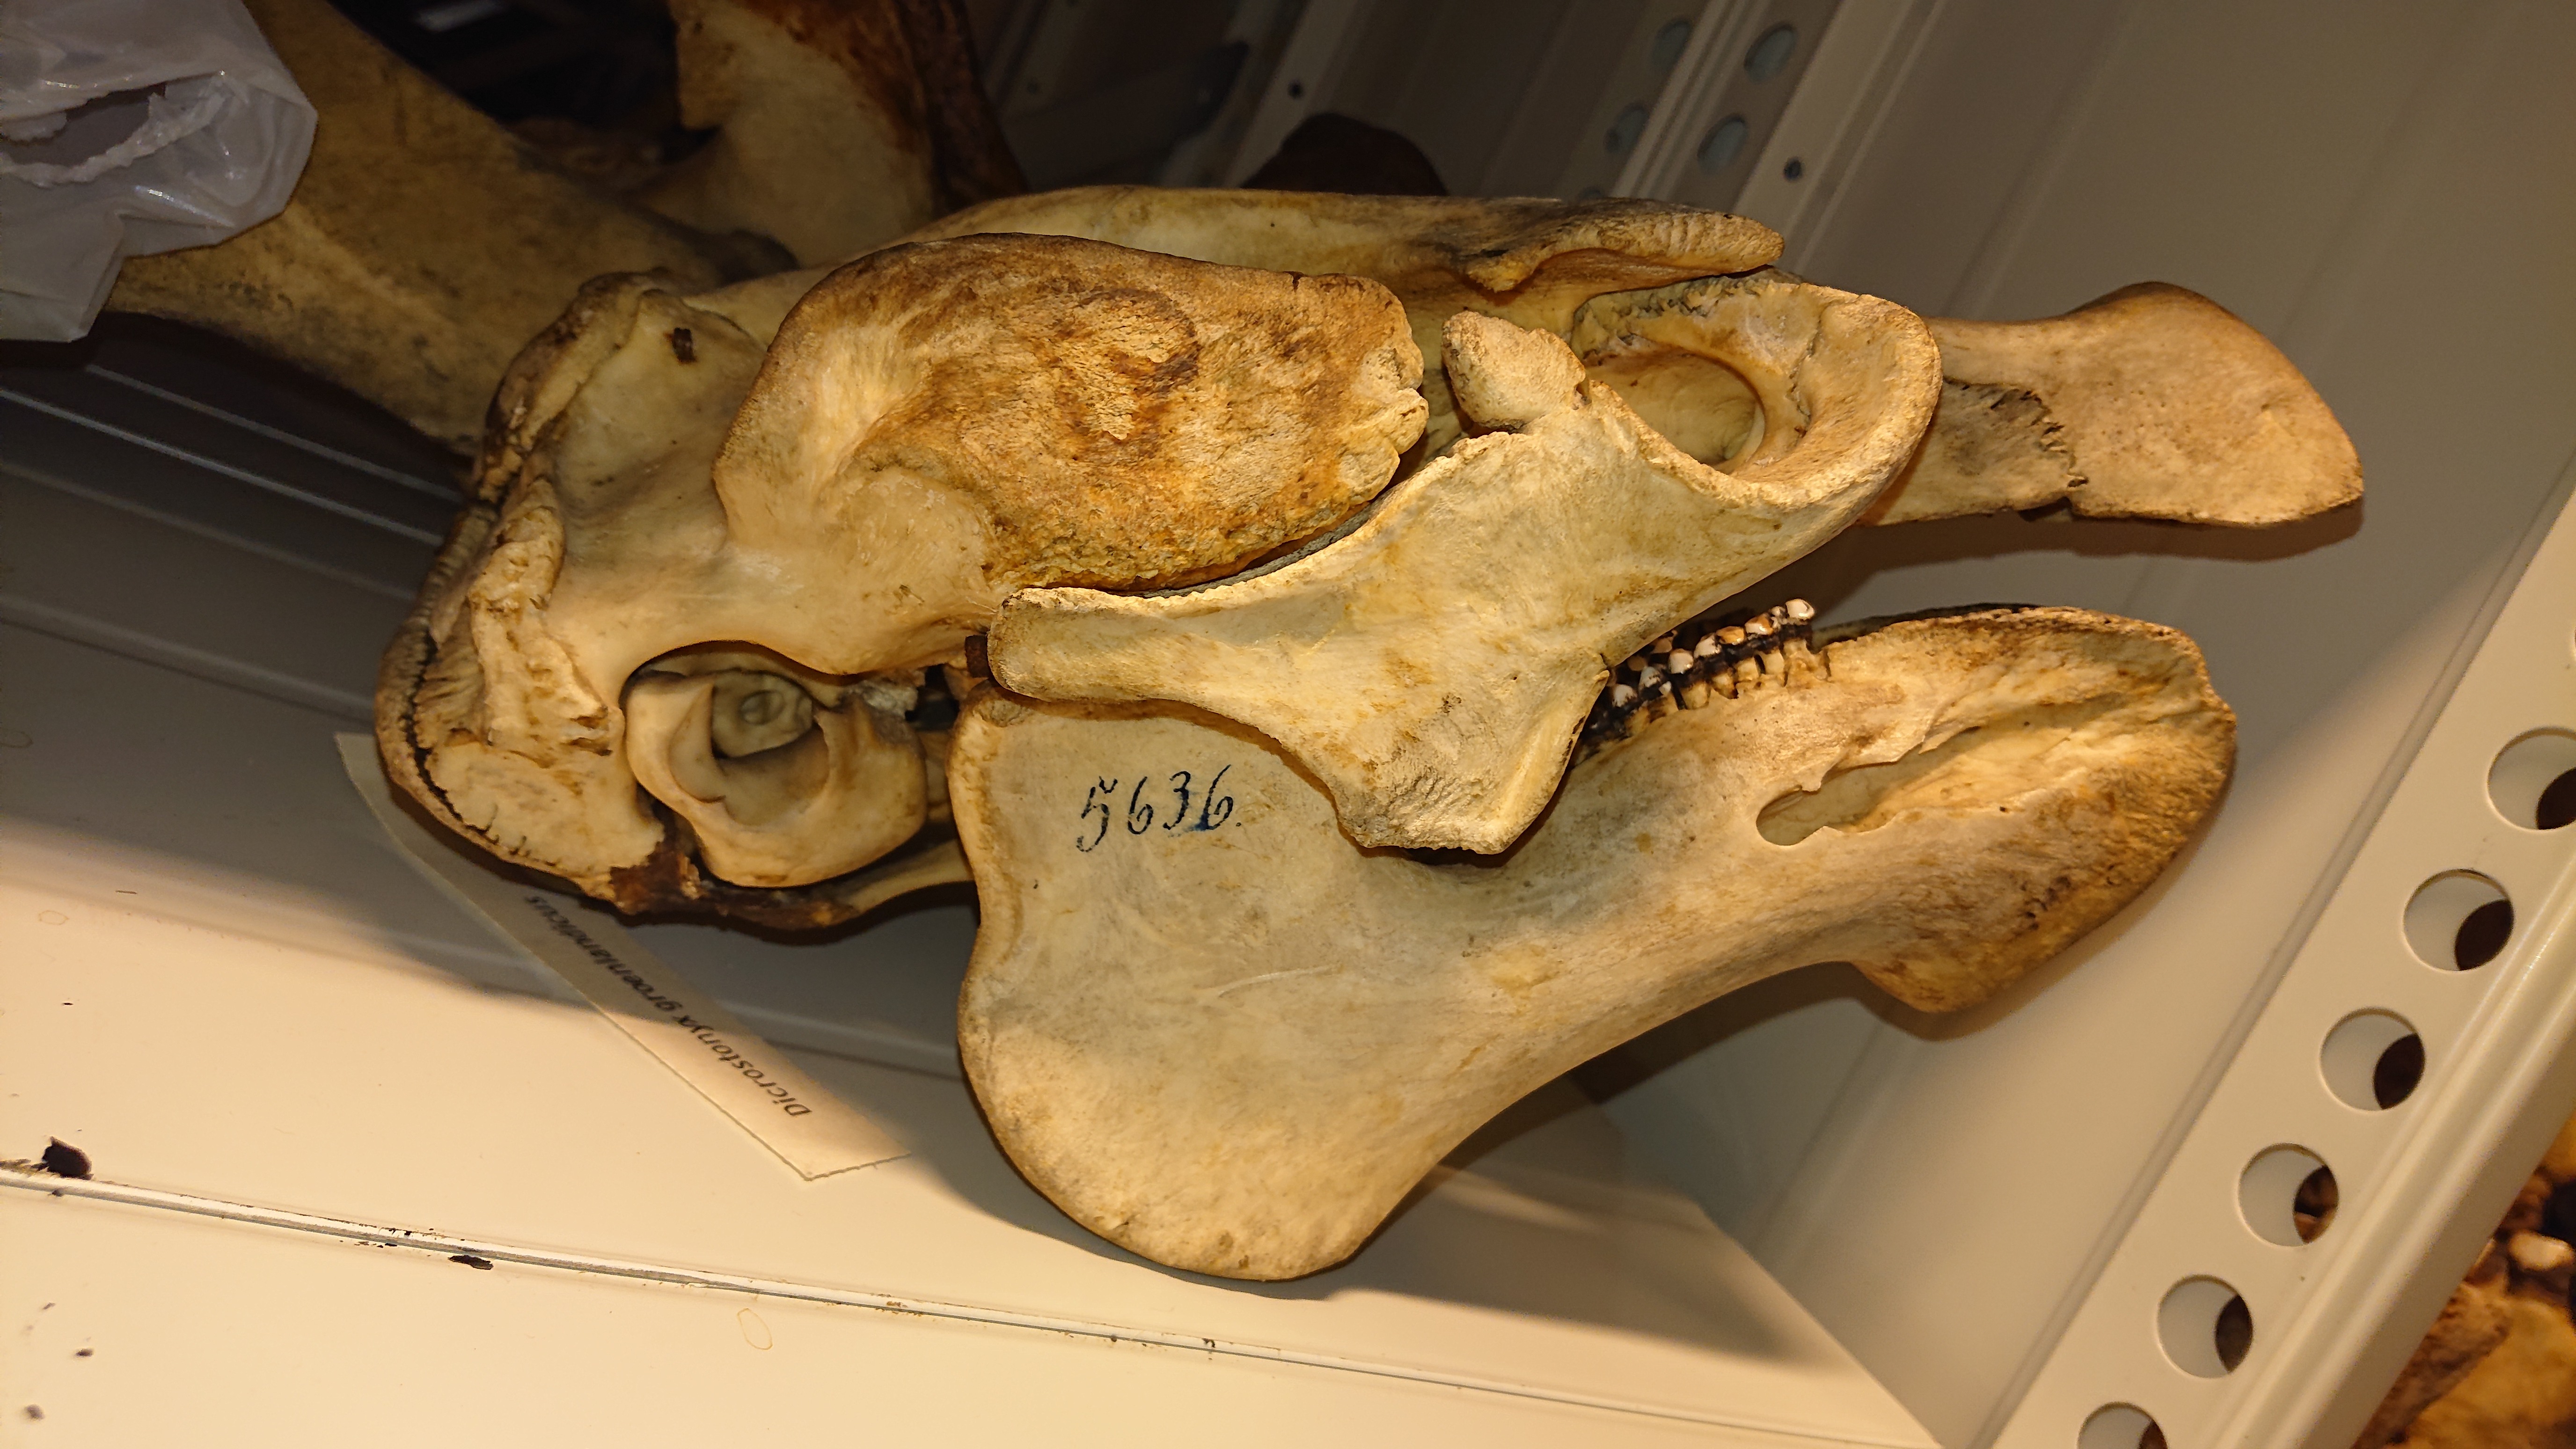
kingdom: Animalia
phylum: Chordata
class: Mammalia
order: Sirenia
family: Trichechidae
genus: Trichechus
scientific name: Trichechus manatus
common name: West indian manatee
